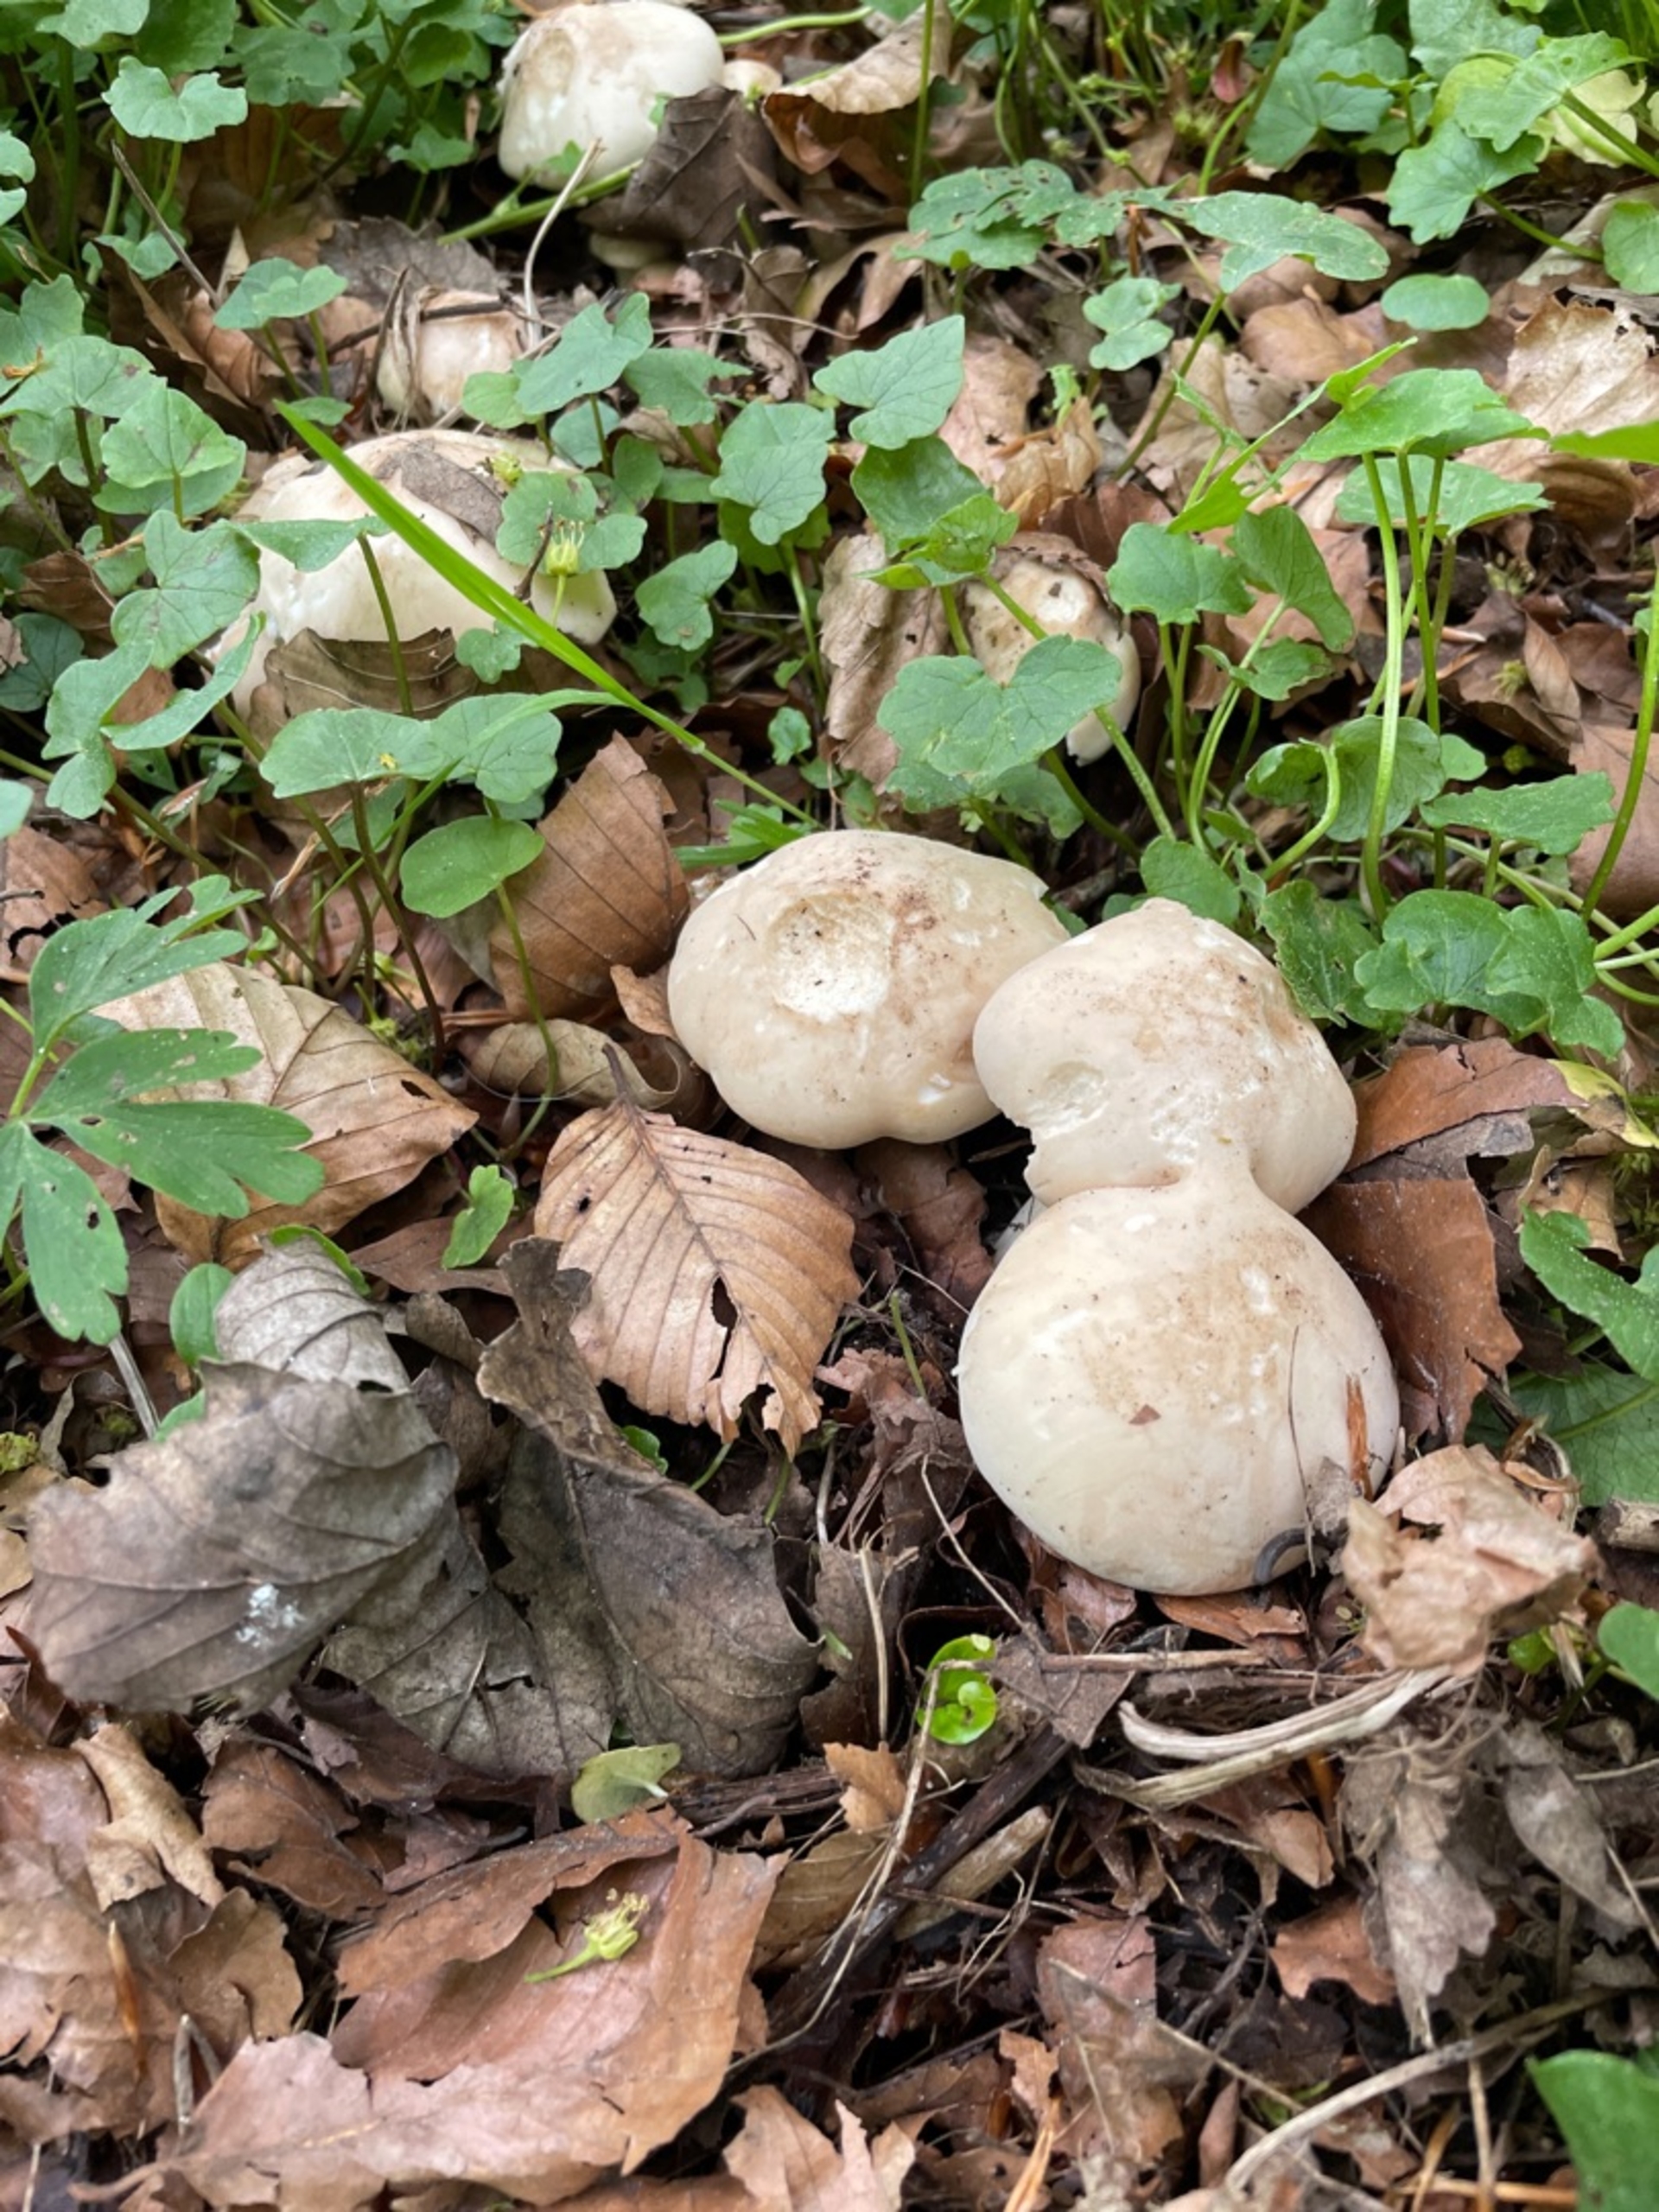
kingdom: Fungi
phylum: Basidiomycota
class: Agaricomycetes
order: Agaricales
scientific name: Agaricales
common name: Champignonordenen
